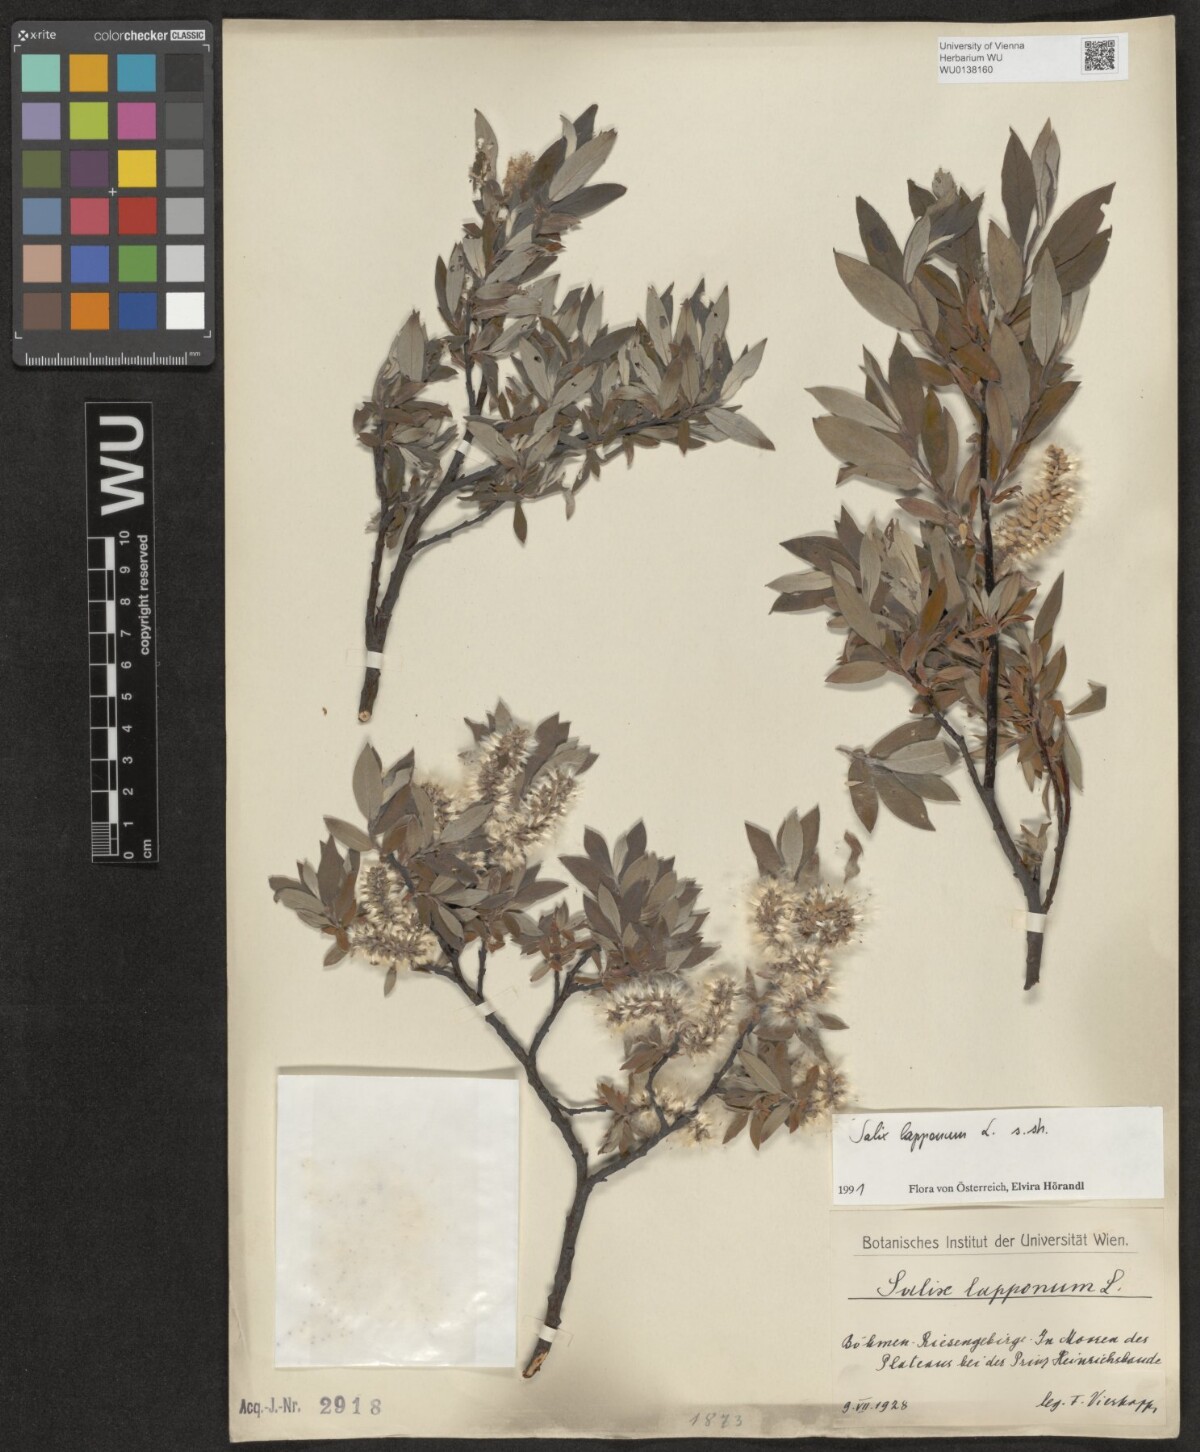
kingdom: Plantae
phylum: Tracheophyta
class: Magnoliopsida
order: Malpighiales
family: Salicaceae
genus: Salix
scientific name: Salix lapponum
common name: Downy willow
